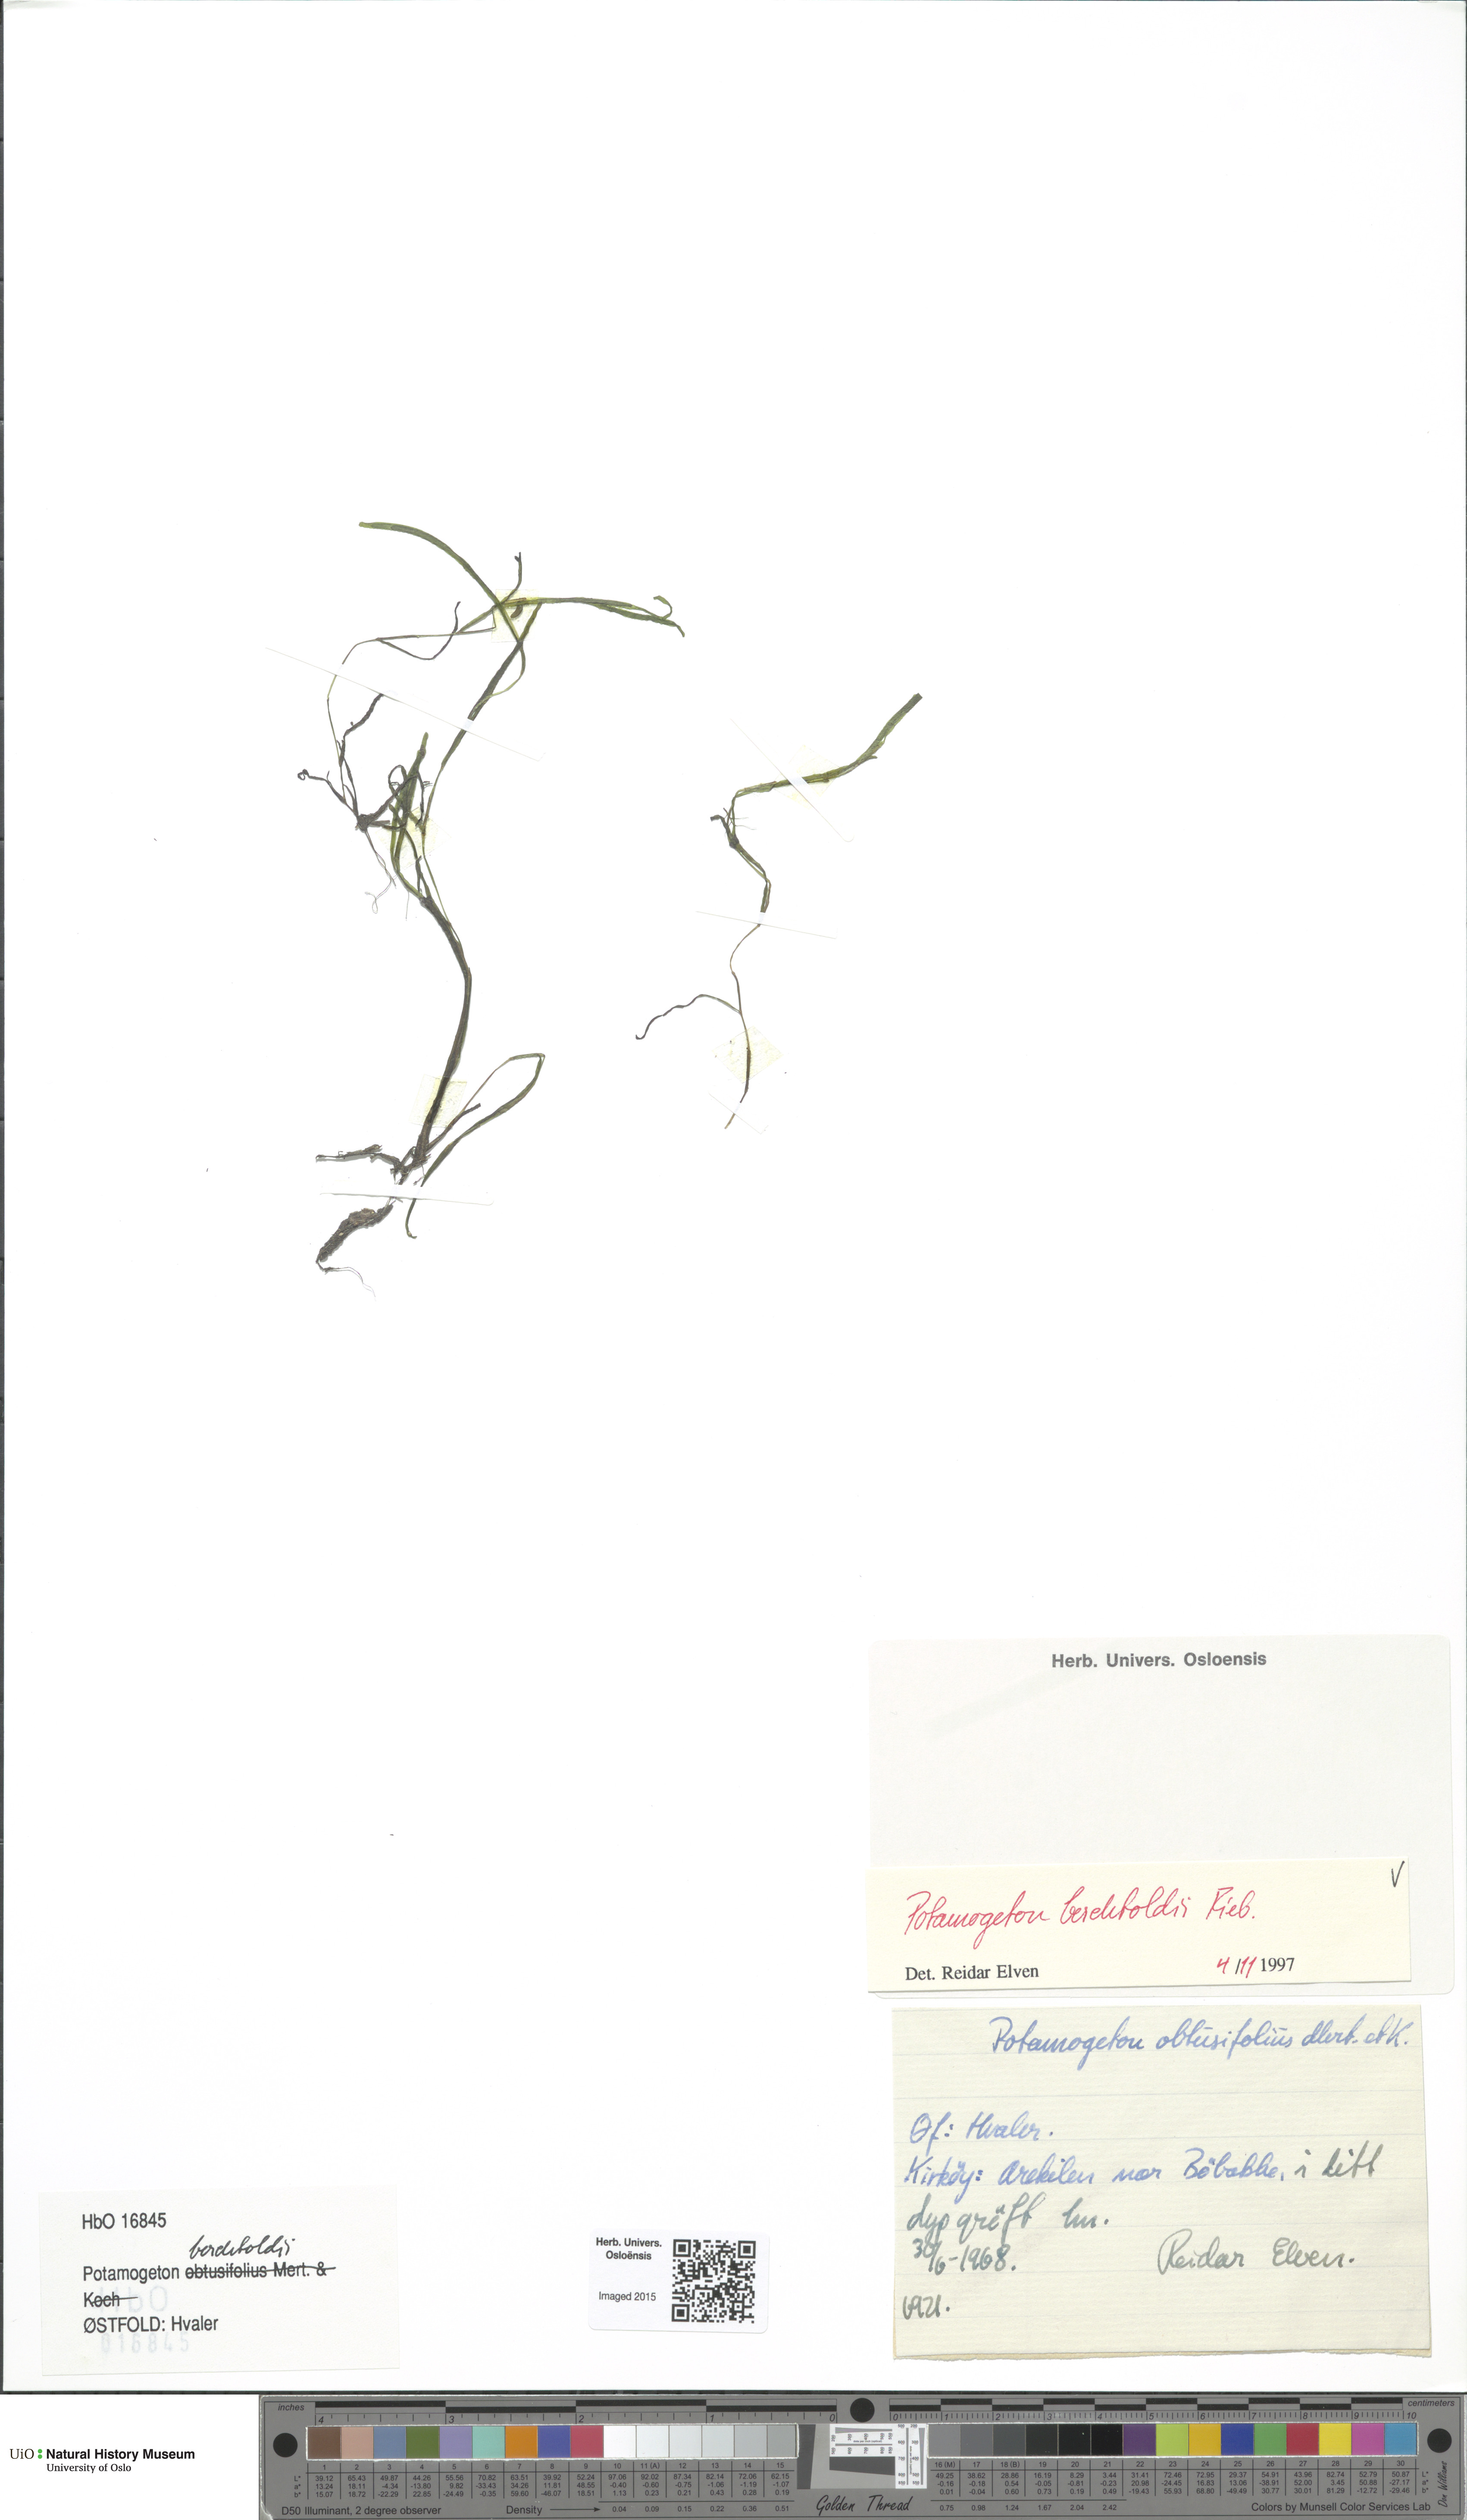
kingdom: Plantae
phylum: Tracheophyta
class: Liliopsida
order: Alismatales
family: Potamogetonaceae
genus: Potamogeton
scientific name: Potamogeton berchtoldii
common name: Small pondweed
